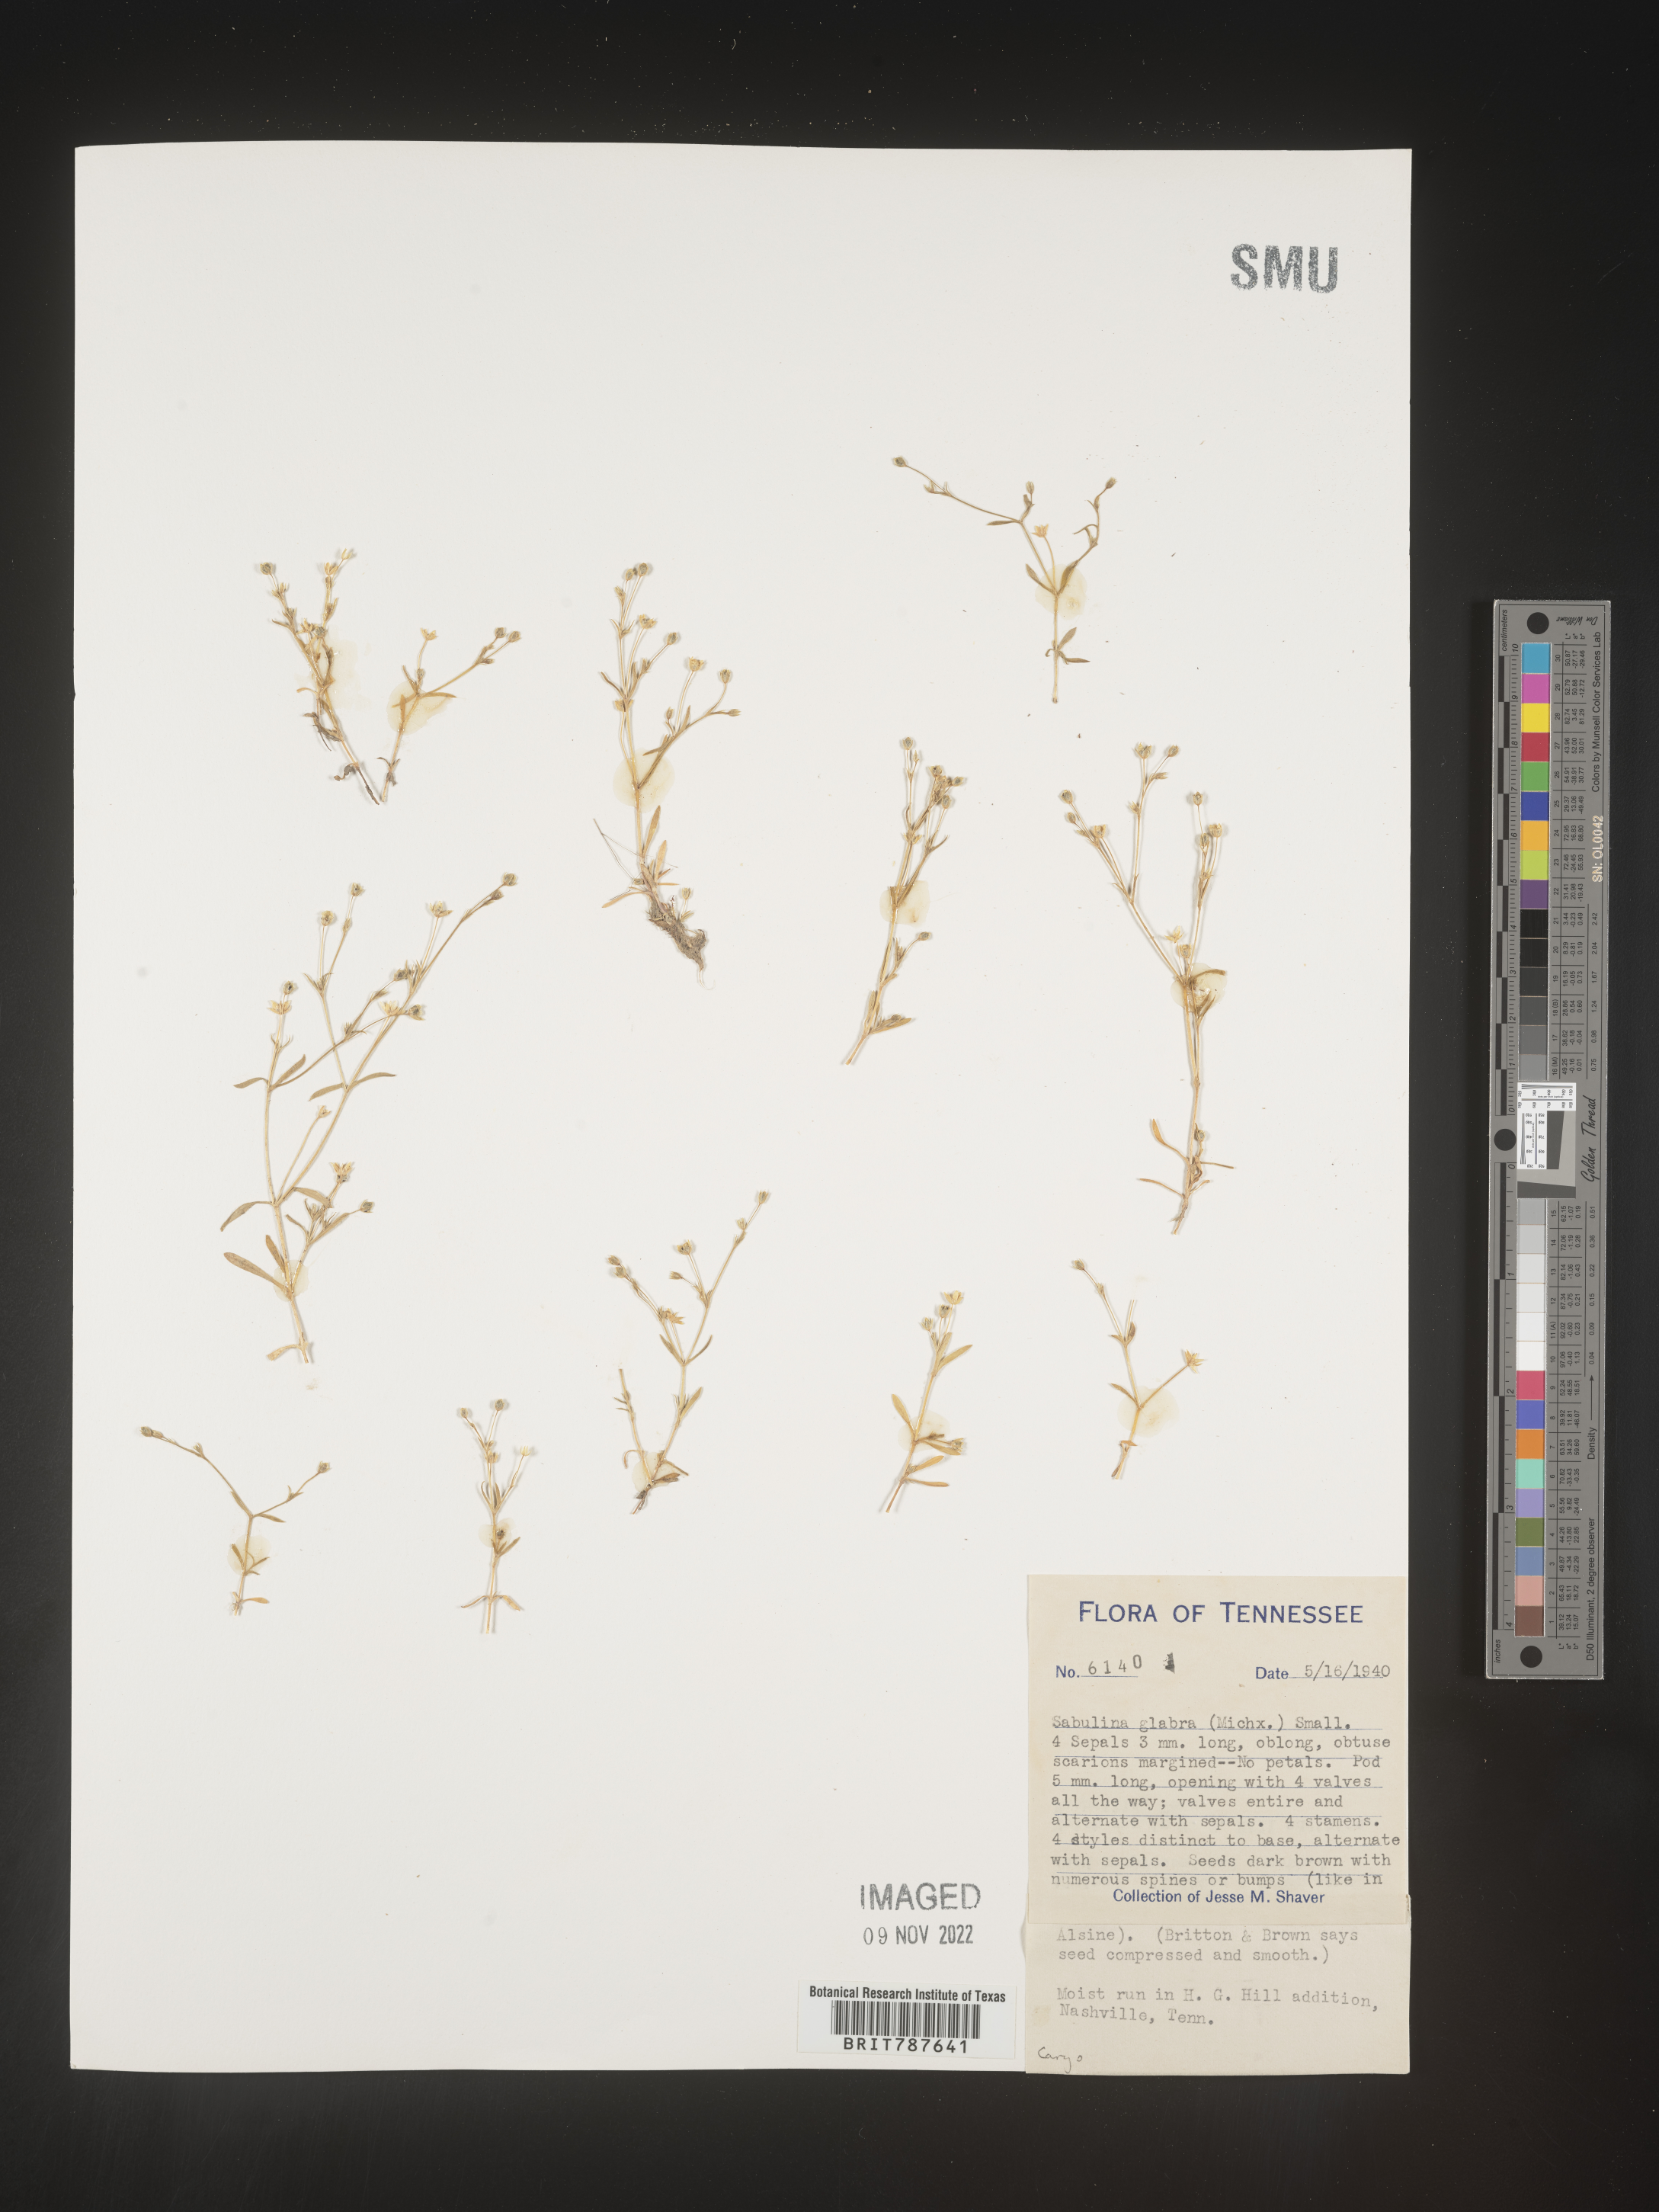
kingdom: Plantae
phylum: Tracheophyta
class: Magnoliopsida
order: Caryophyllales
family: Caryophyllaceae
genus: Arenaria
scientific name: Arenaria
